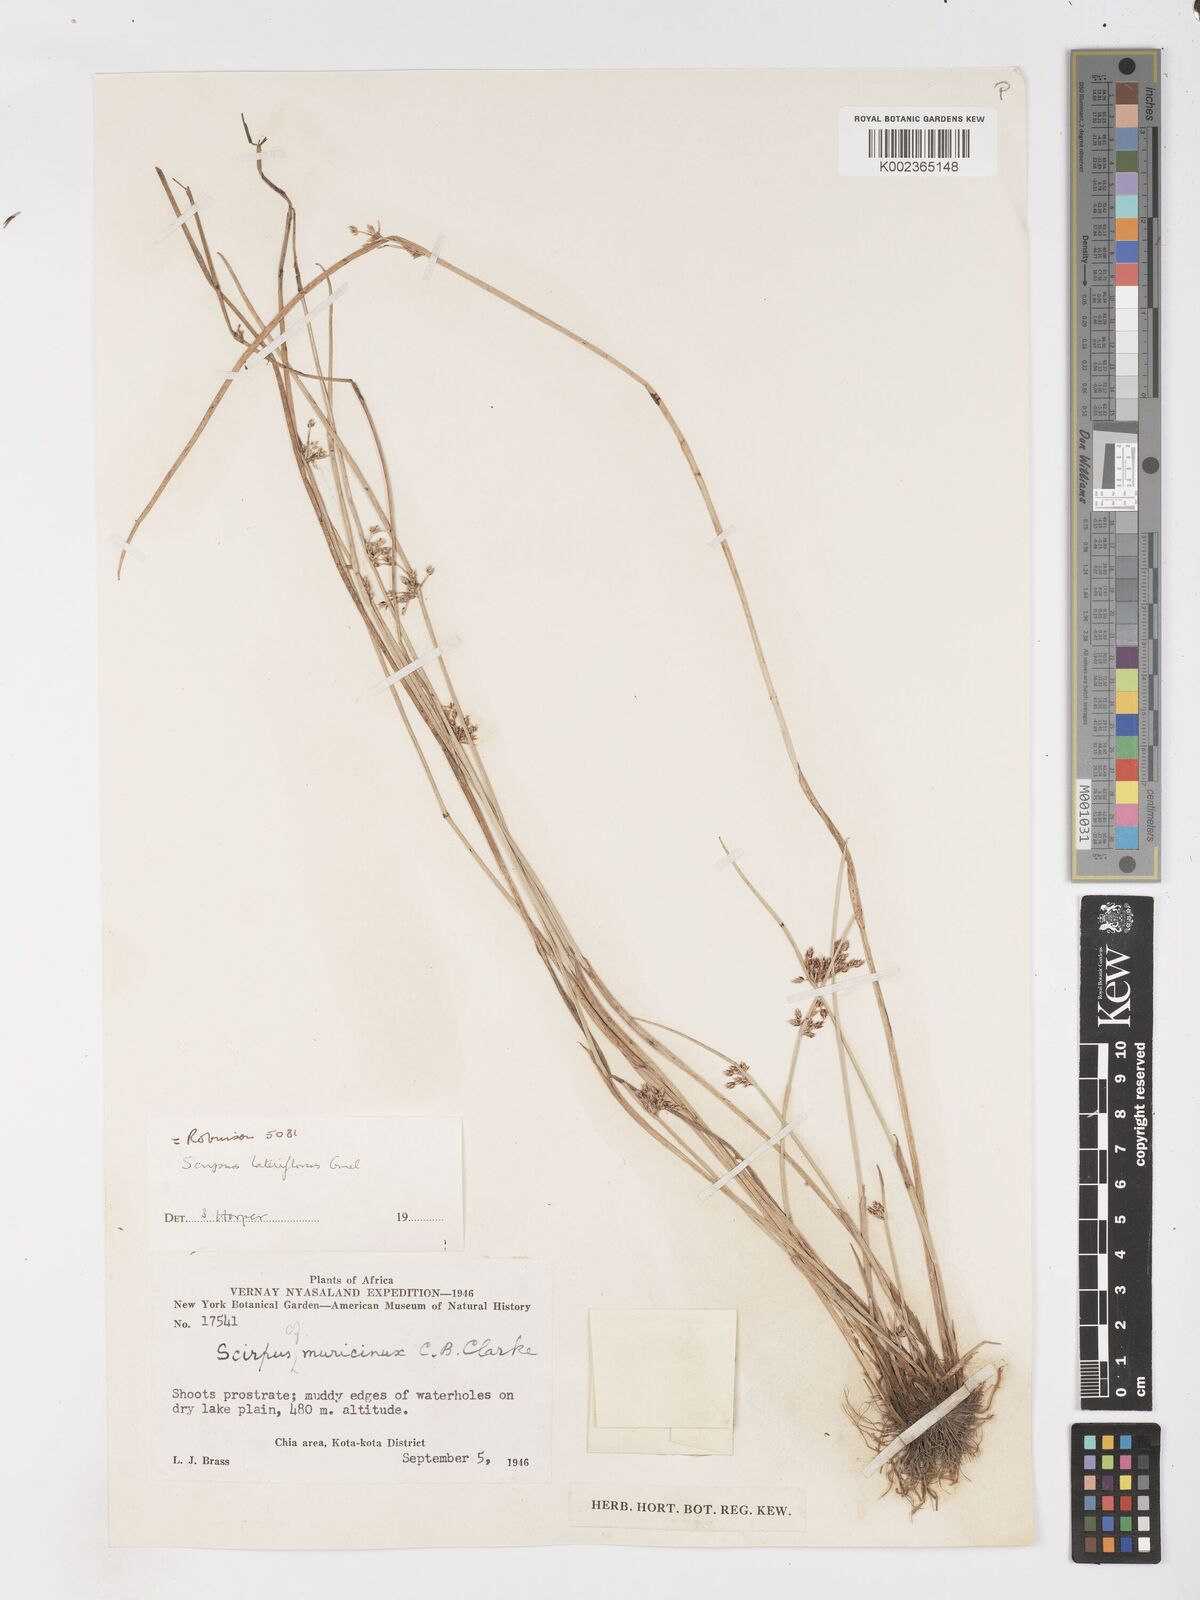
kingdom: Plantae
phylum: Tracheophyta
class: Liliopsida
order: Poales
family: Cyperaceae
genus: Schoenoplectus
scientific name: Schoenoplectus
